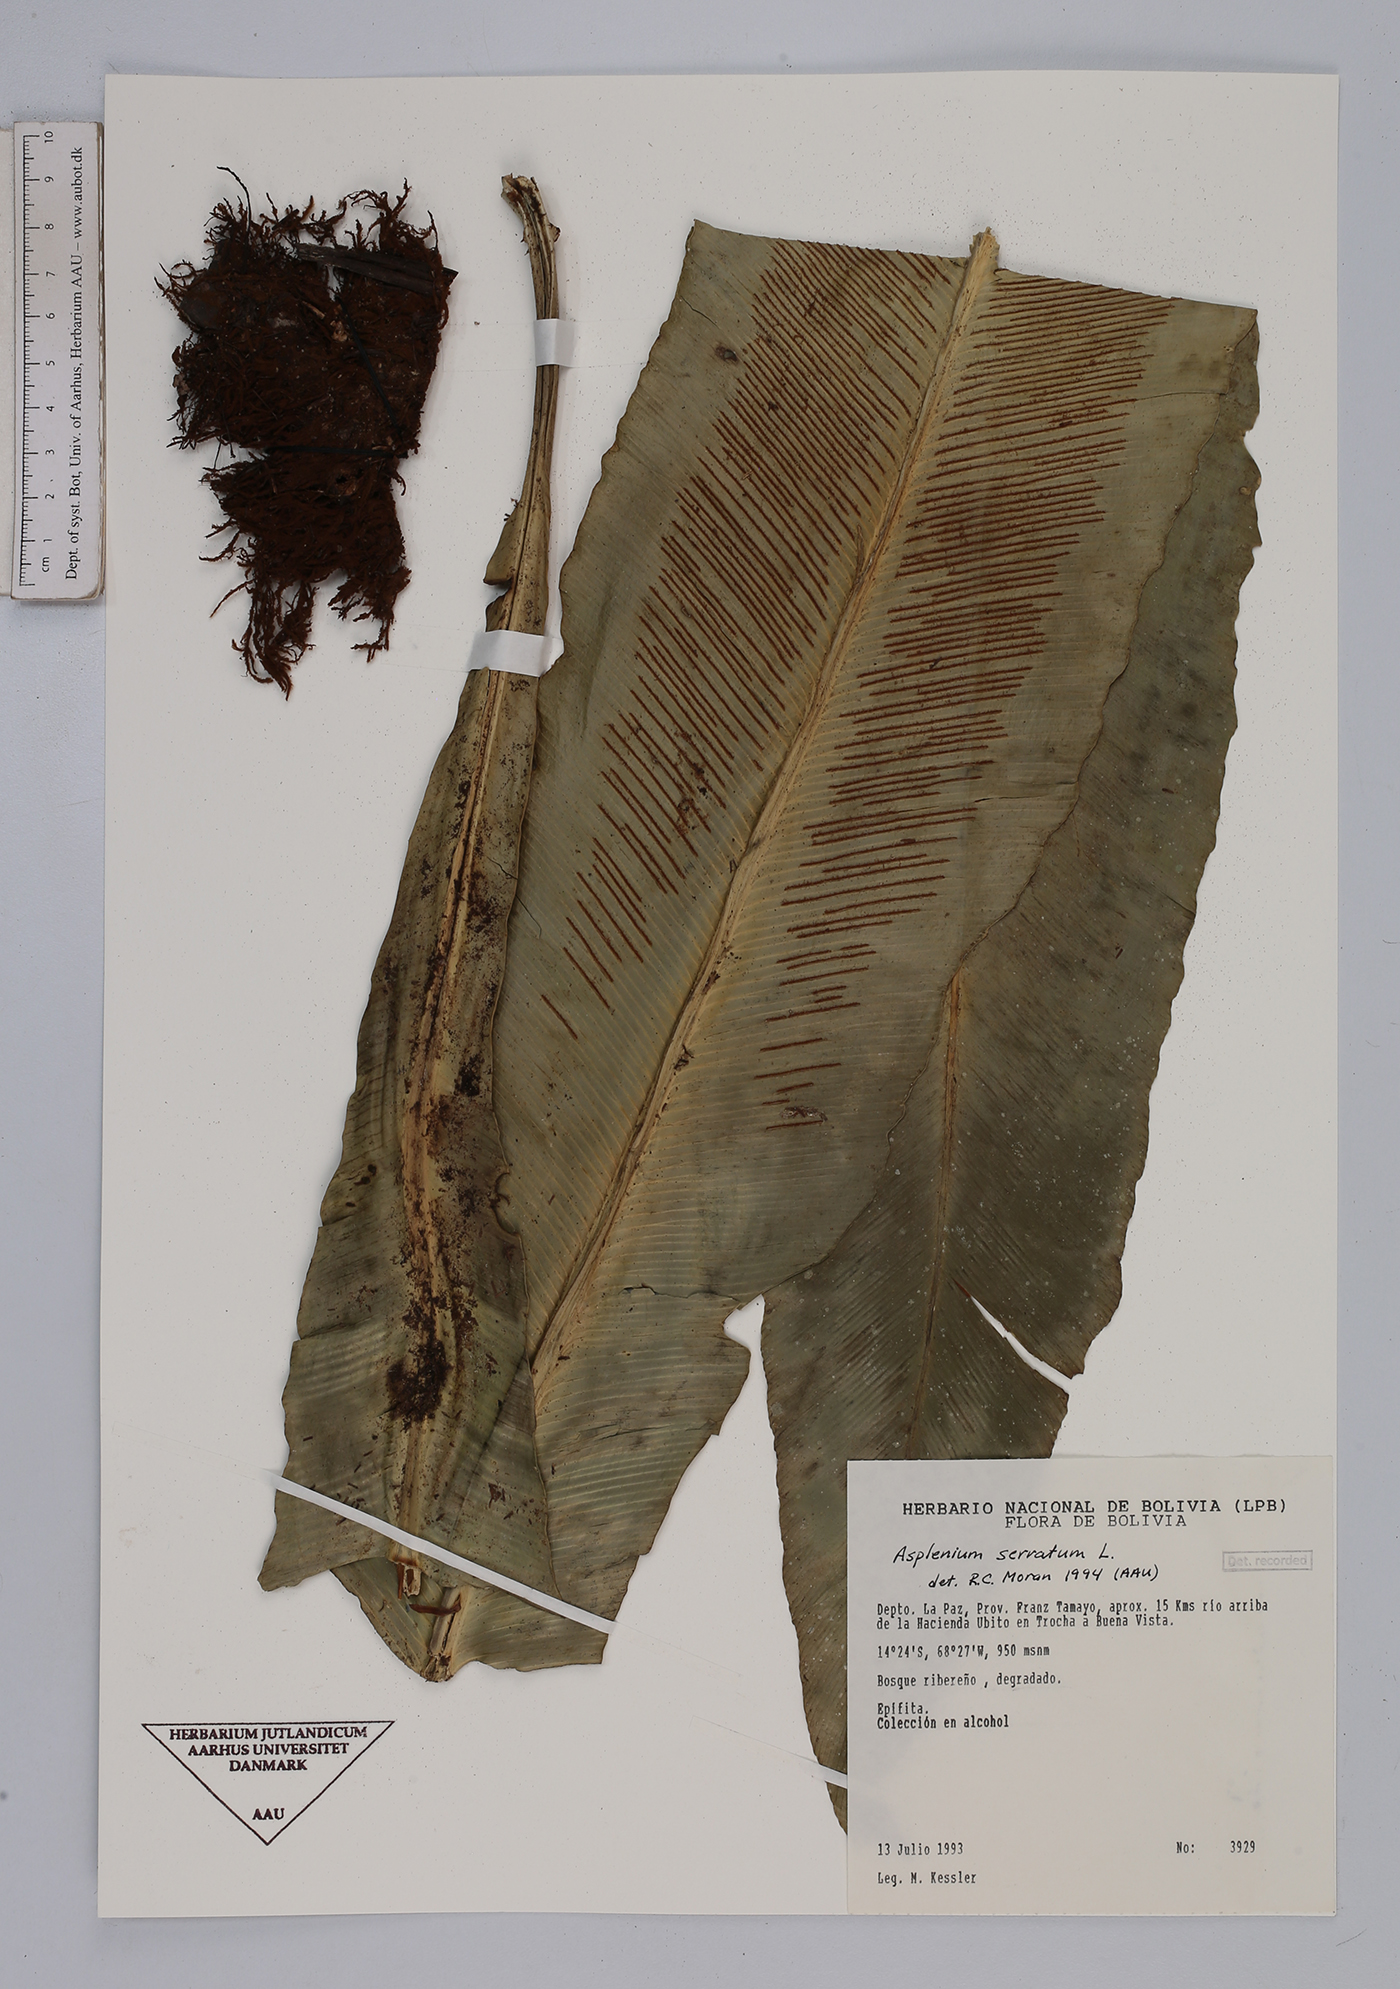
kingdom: Plantae
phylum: Tracheophyta
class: Polypodiopsida
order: Polypodiales
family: Aspleniaceae
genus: Asplenium
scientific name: Asplenium serratum
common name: Wild birdnest fern
